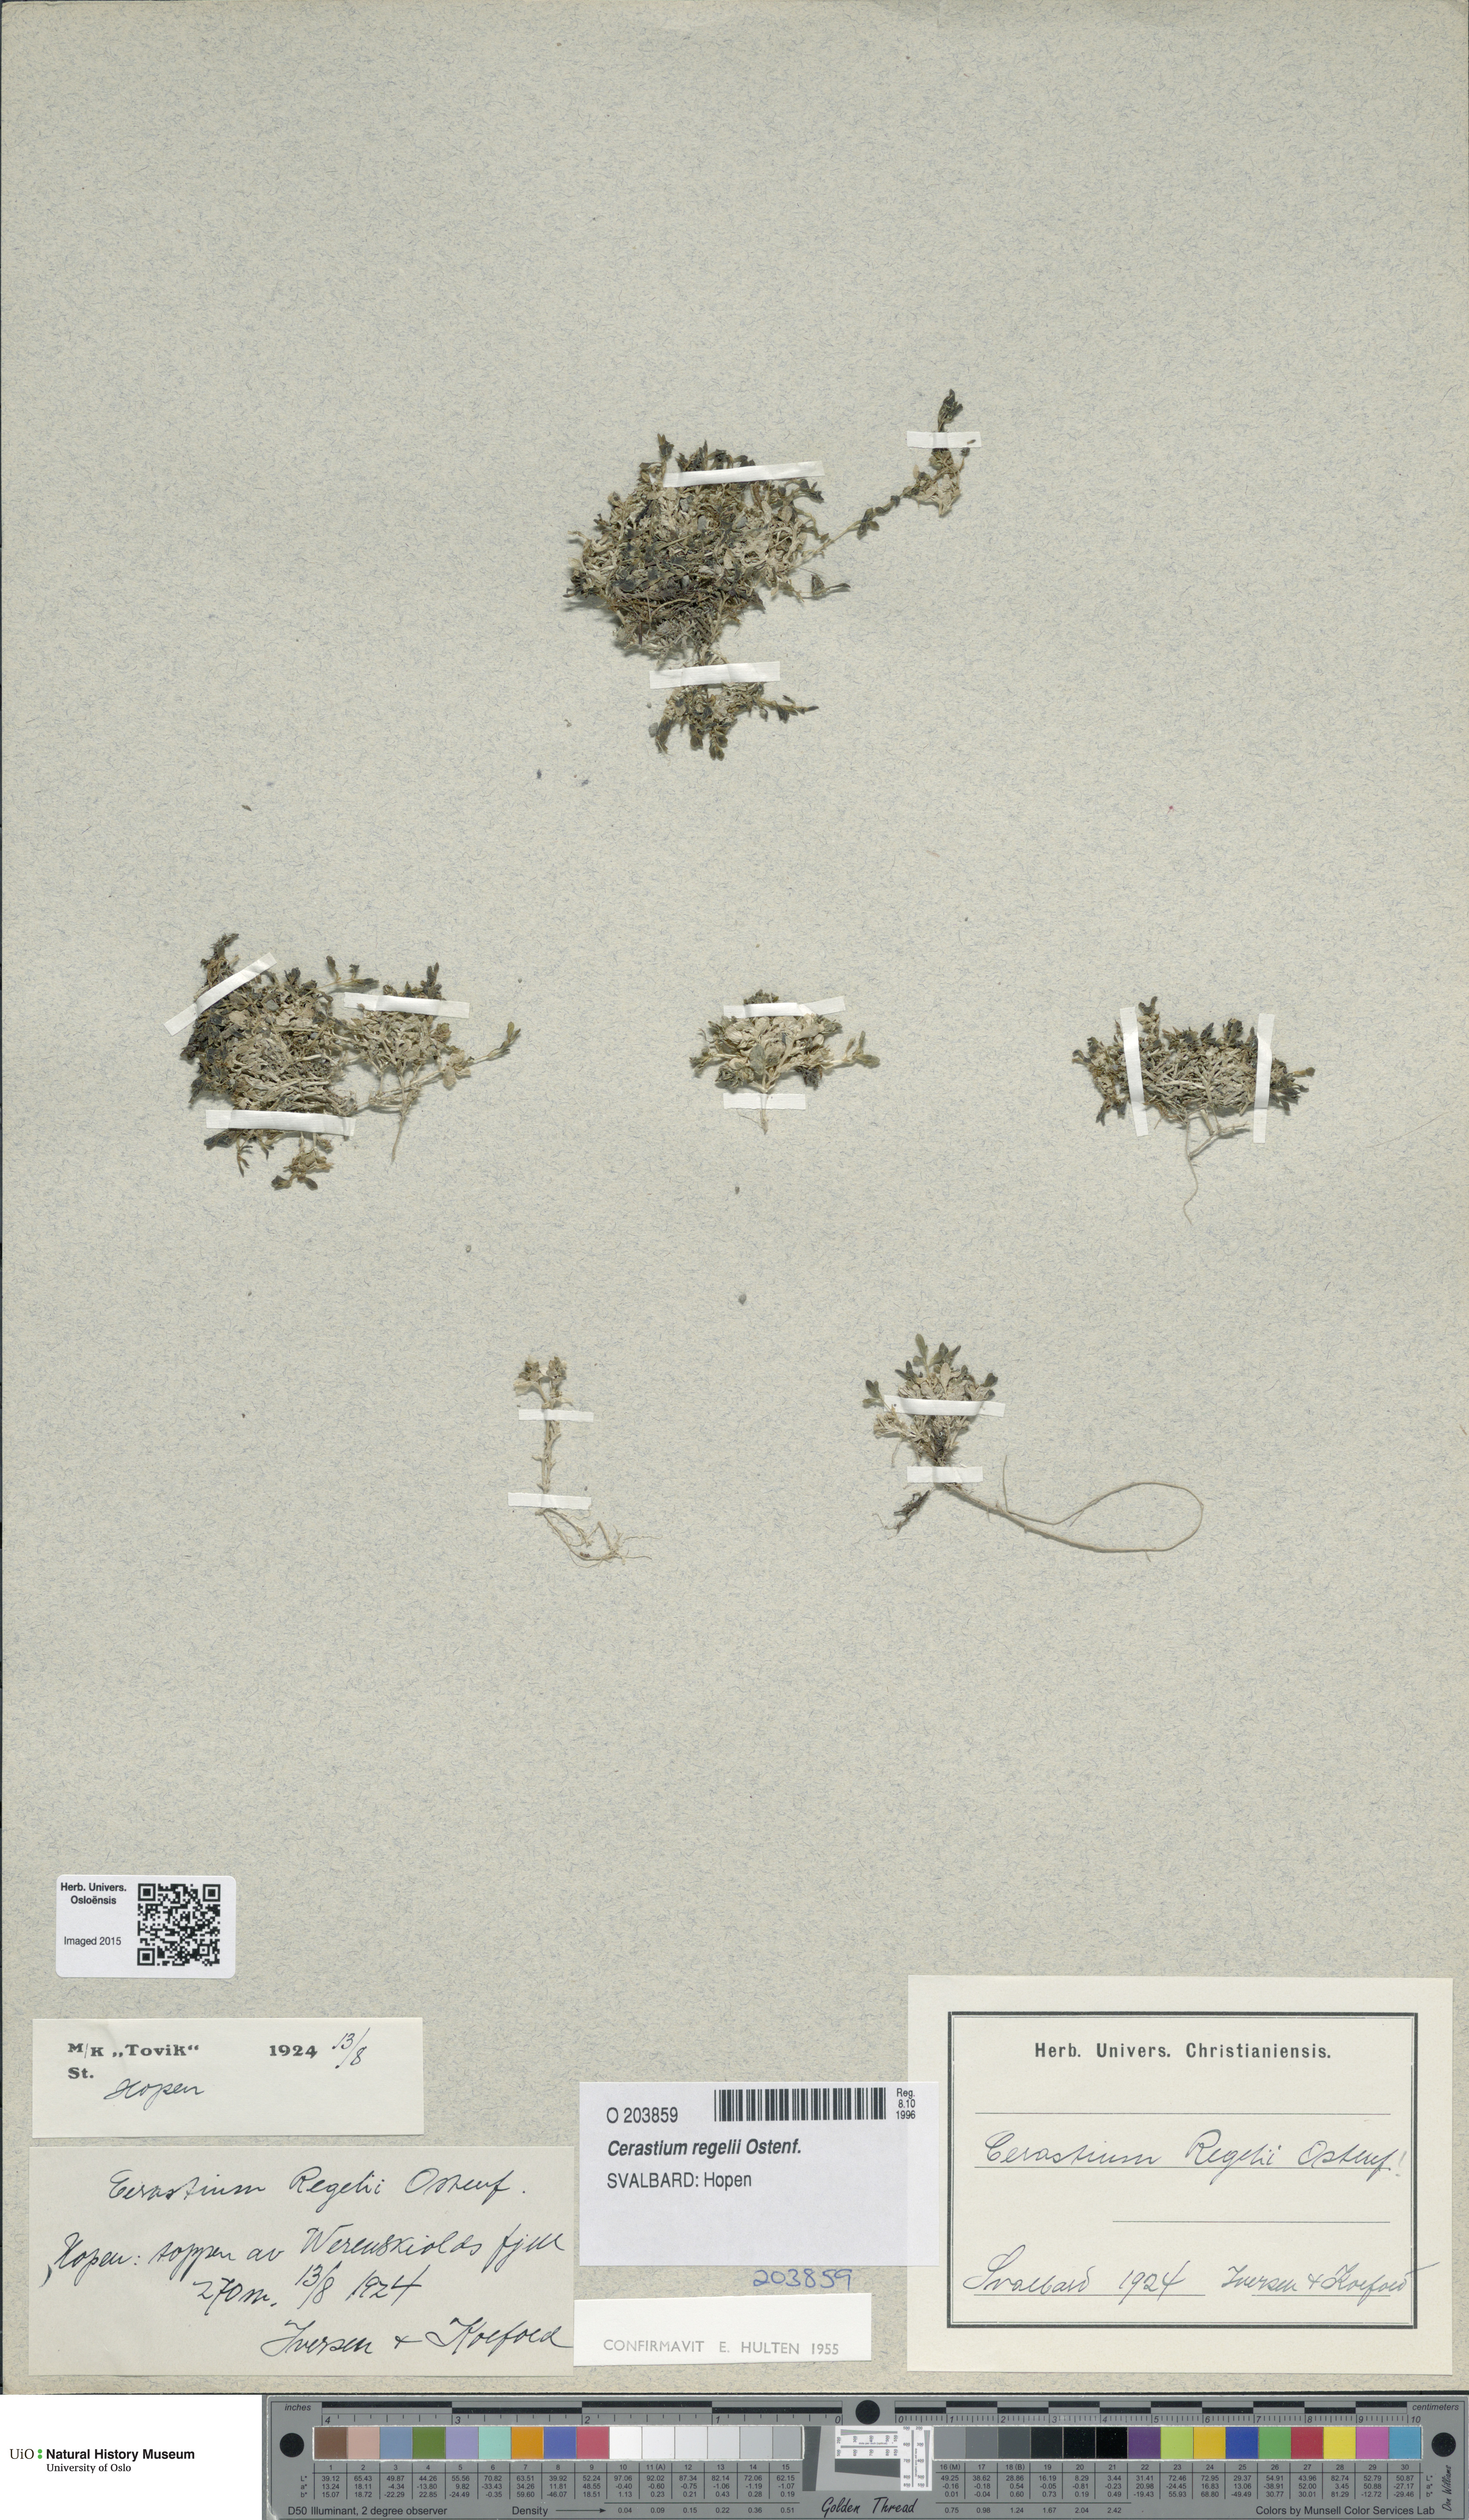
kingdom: Plantae
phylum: Tracheophyta
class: Magnoliopsida
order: Caryophyllales
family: Caryophyllaceae
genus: Cerastium
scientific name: Cerastium regelii
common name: Regel's chickweed
